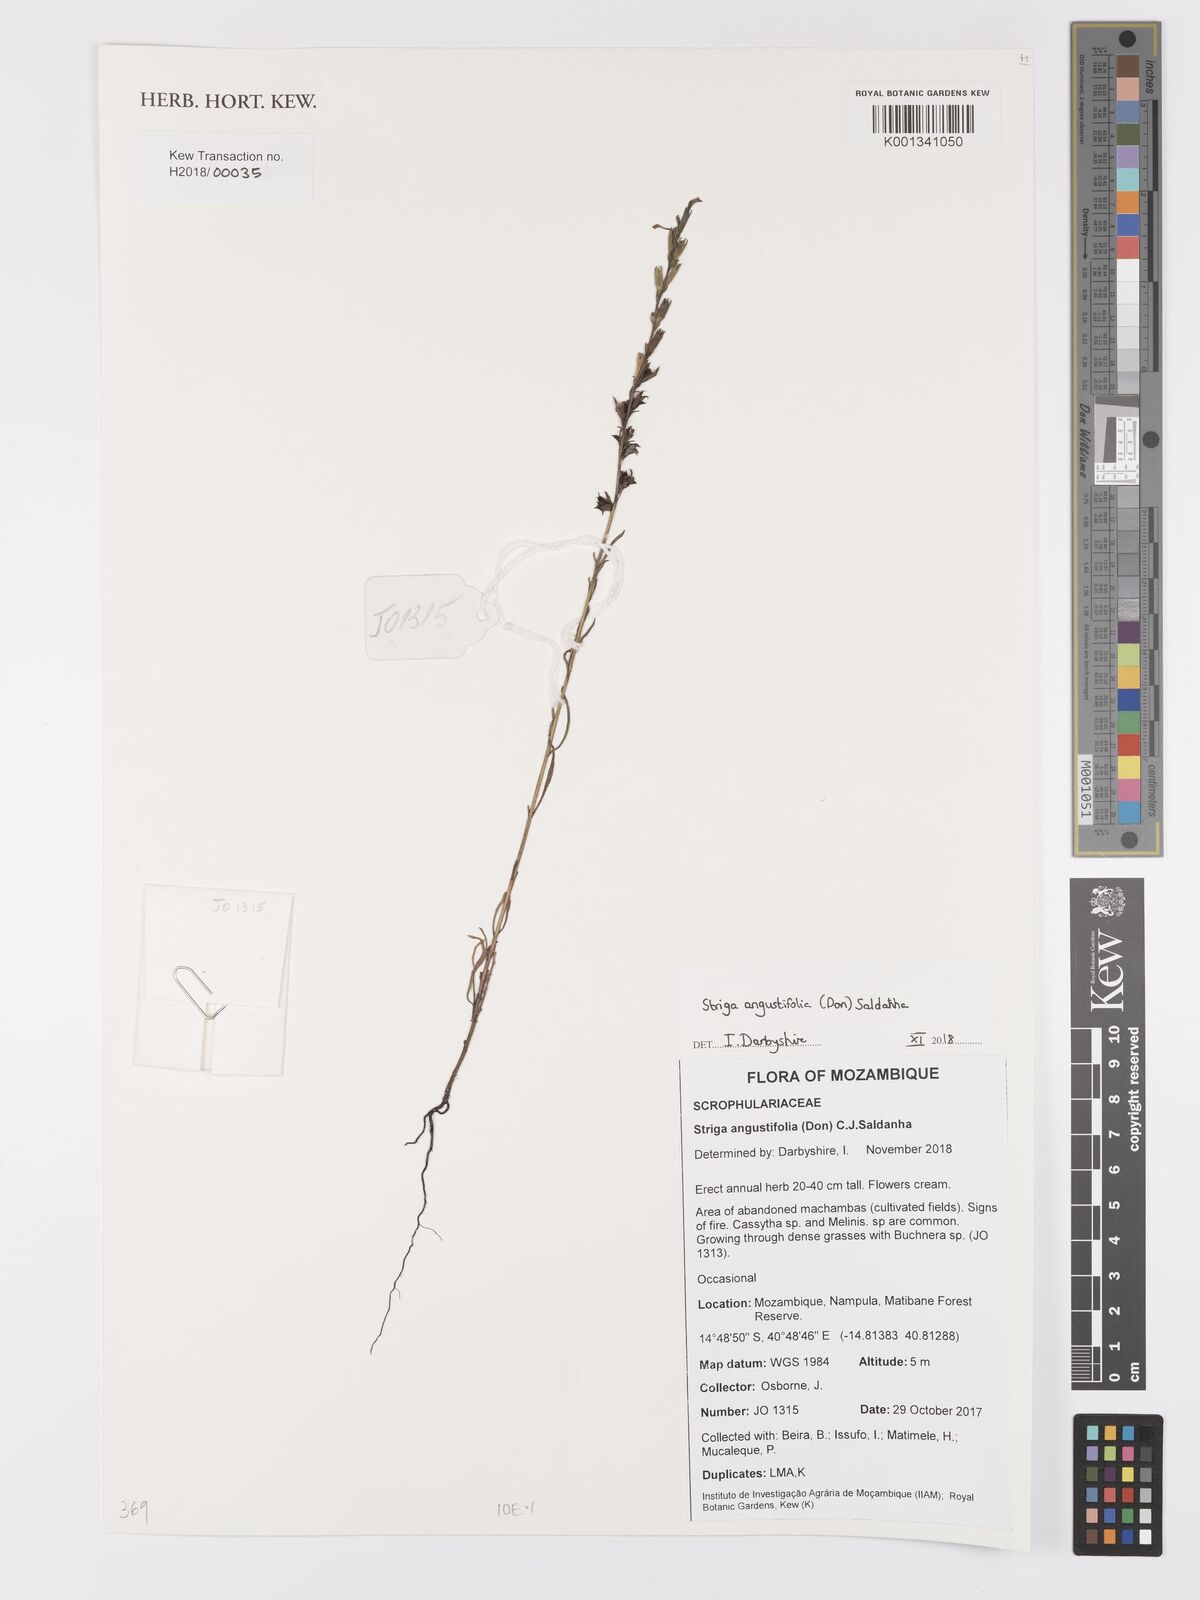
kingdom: Plantae
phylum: Tracheophyta
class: Magnoliopsida
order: Lamiales
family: Orobanchaceae
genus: Striga
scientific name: Striga angustifolia
